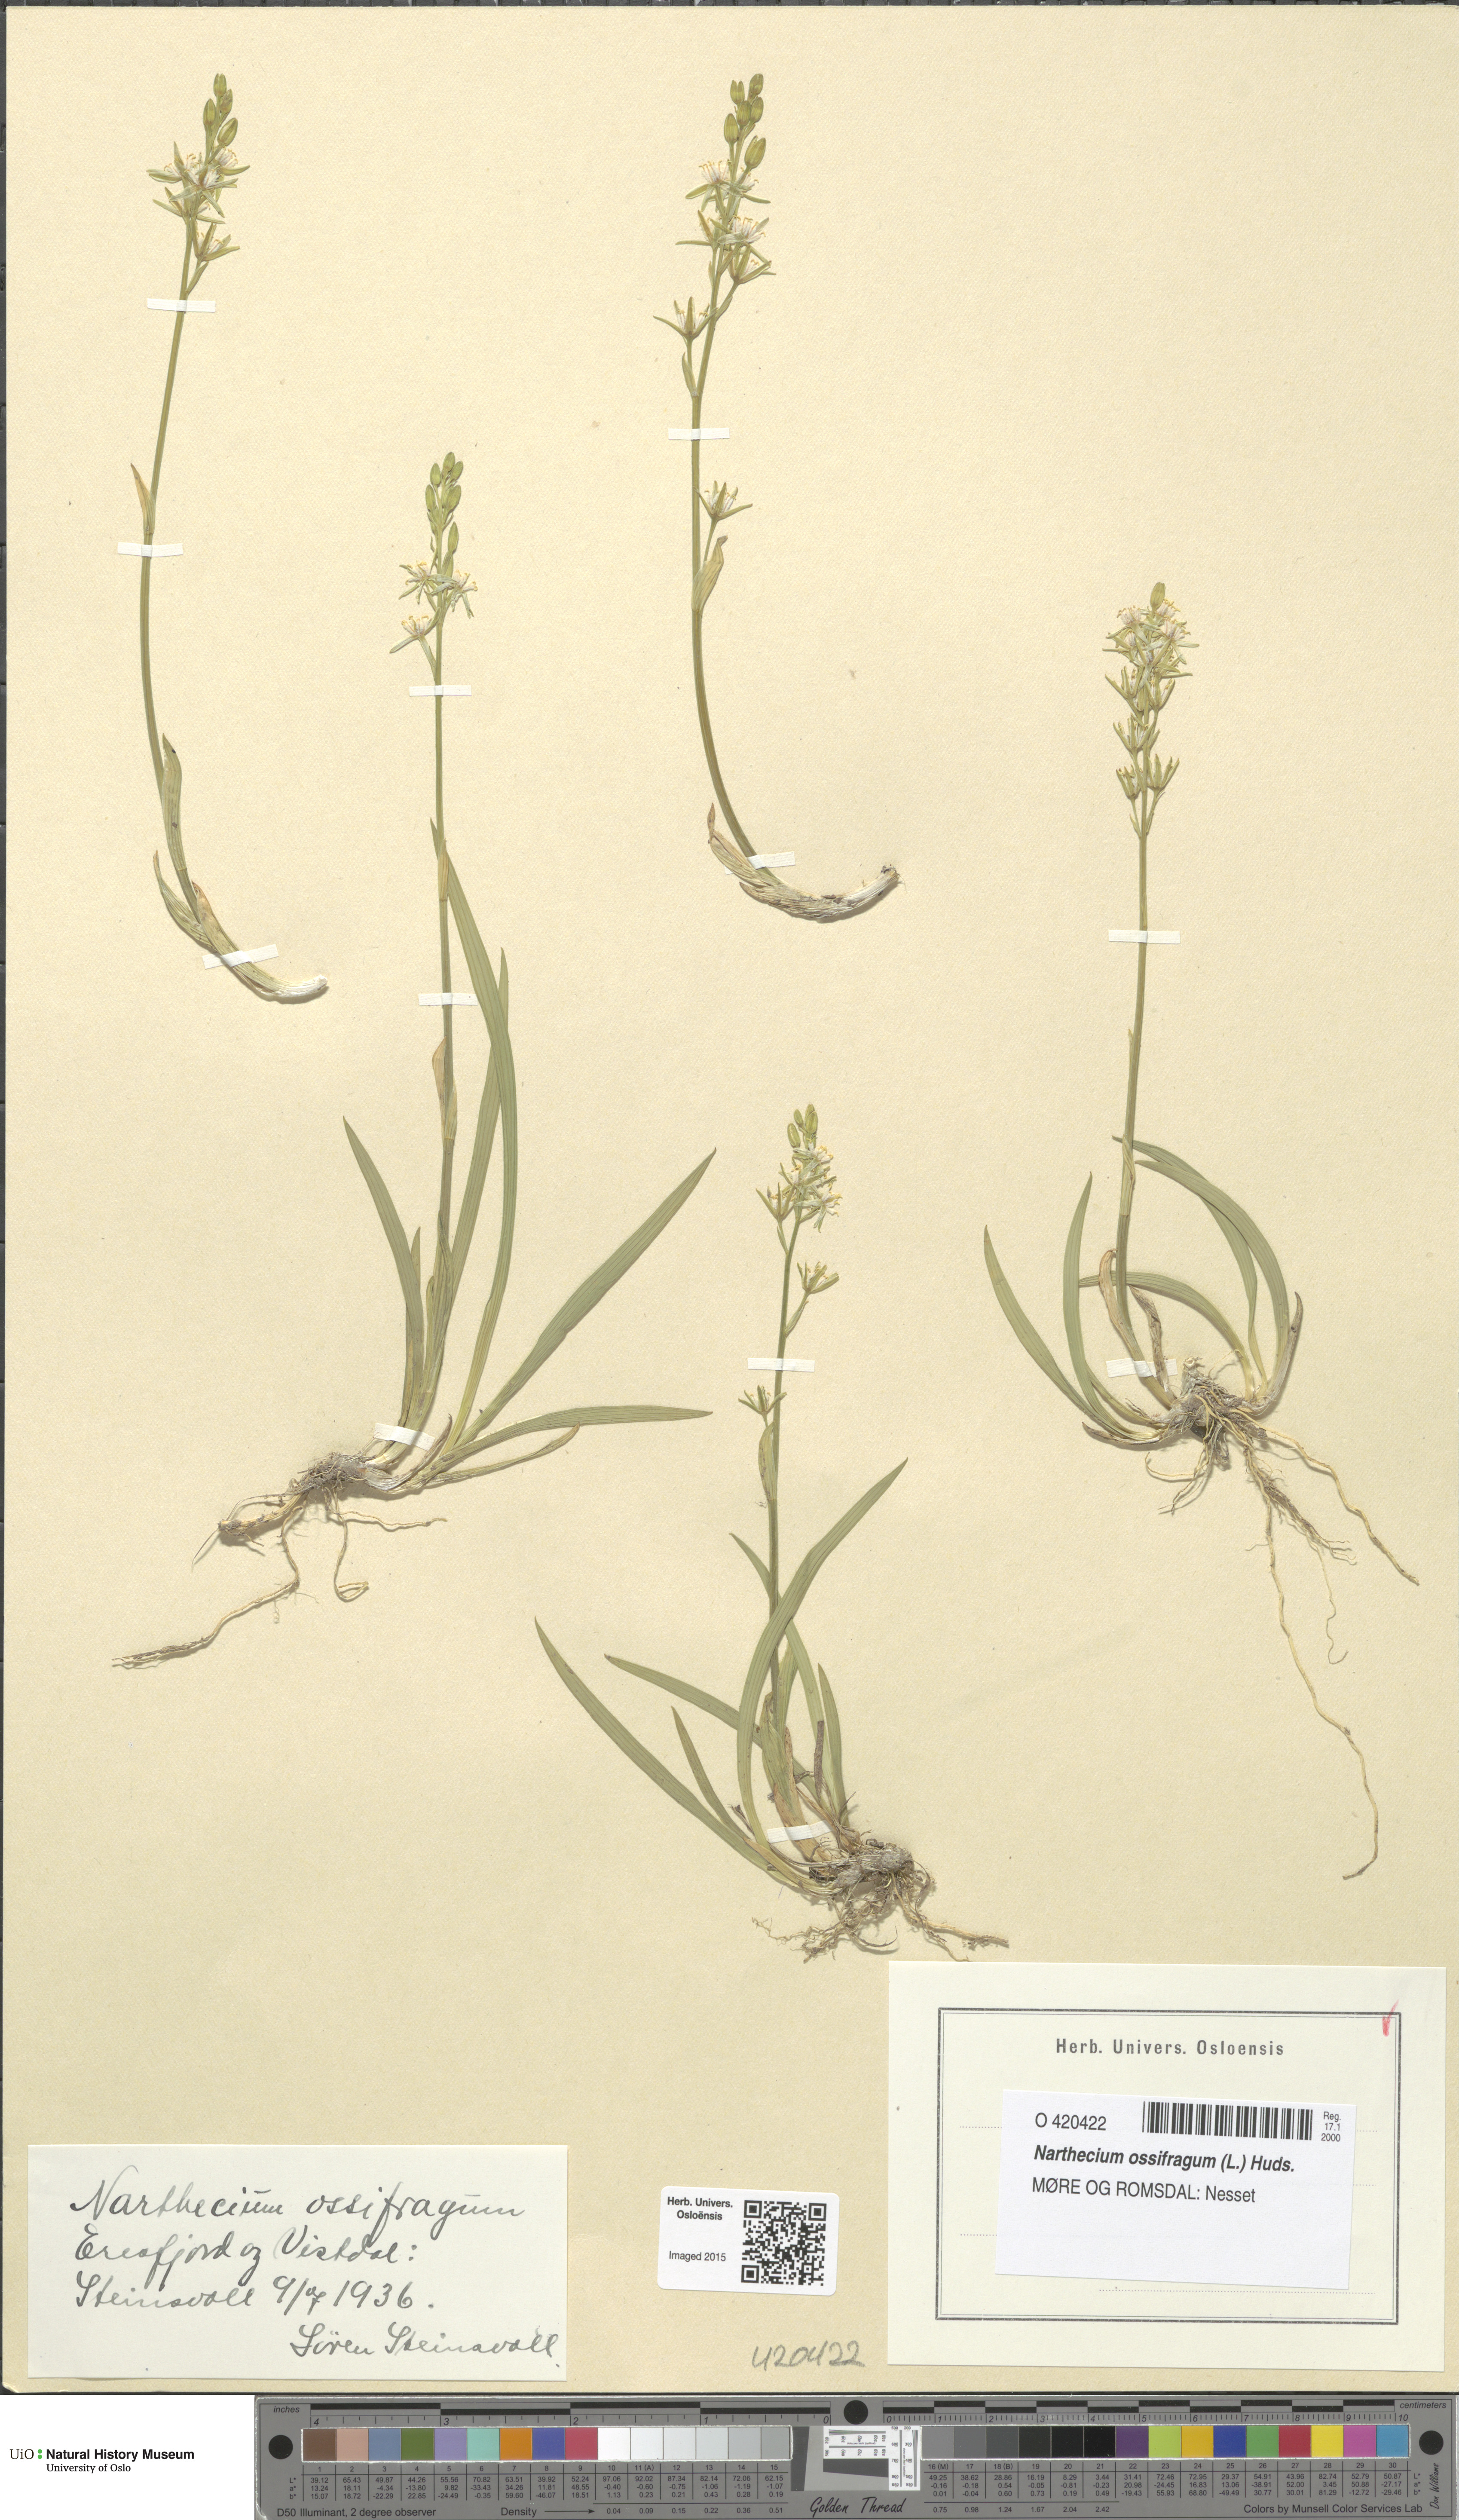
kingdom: Plantae
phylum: Tracheophyta
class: Liliopsida
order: Dioscoreales
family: Nartheciaceae
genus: Narthecium
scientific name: Narthecium ossifragum
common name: Bog asphodel
